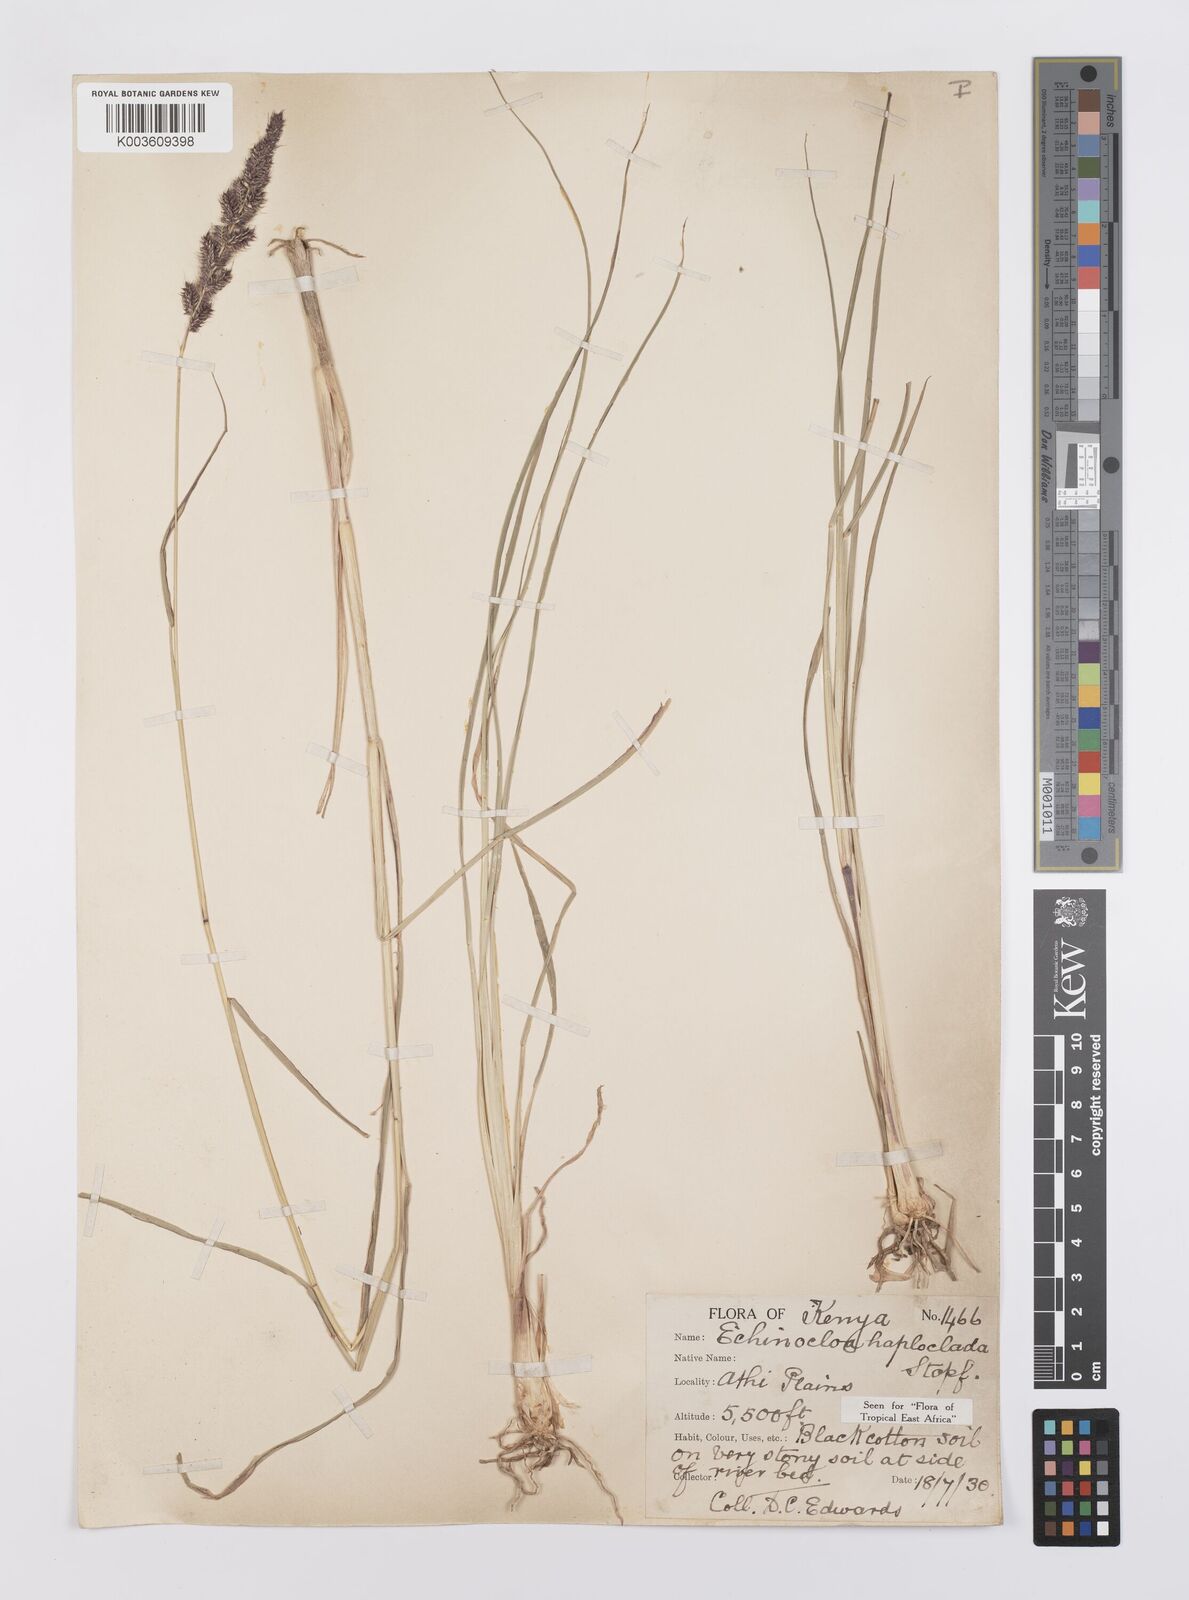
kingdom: Plantae
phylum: Tracheophyta
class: Liliopsida
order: Poales
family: Poaceae
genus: Echinochloa
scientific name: Echinochloa haploclada
